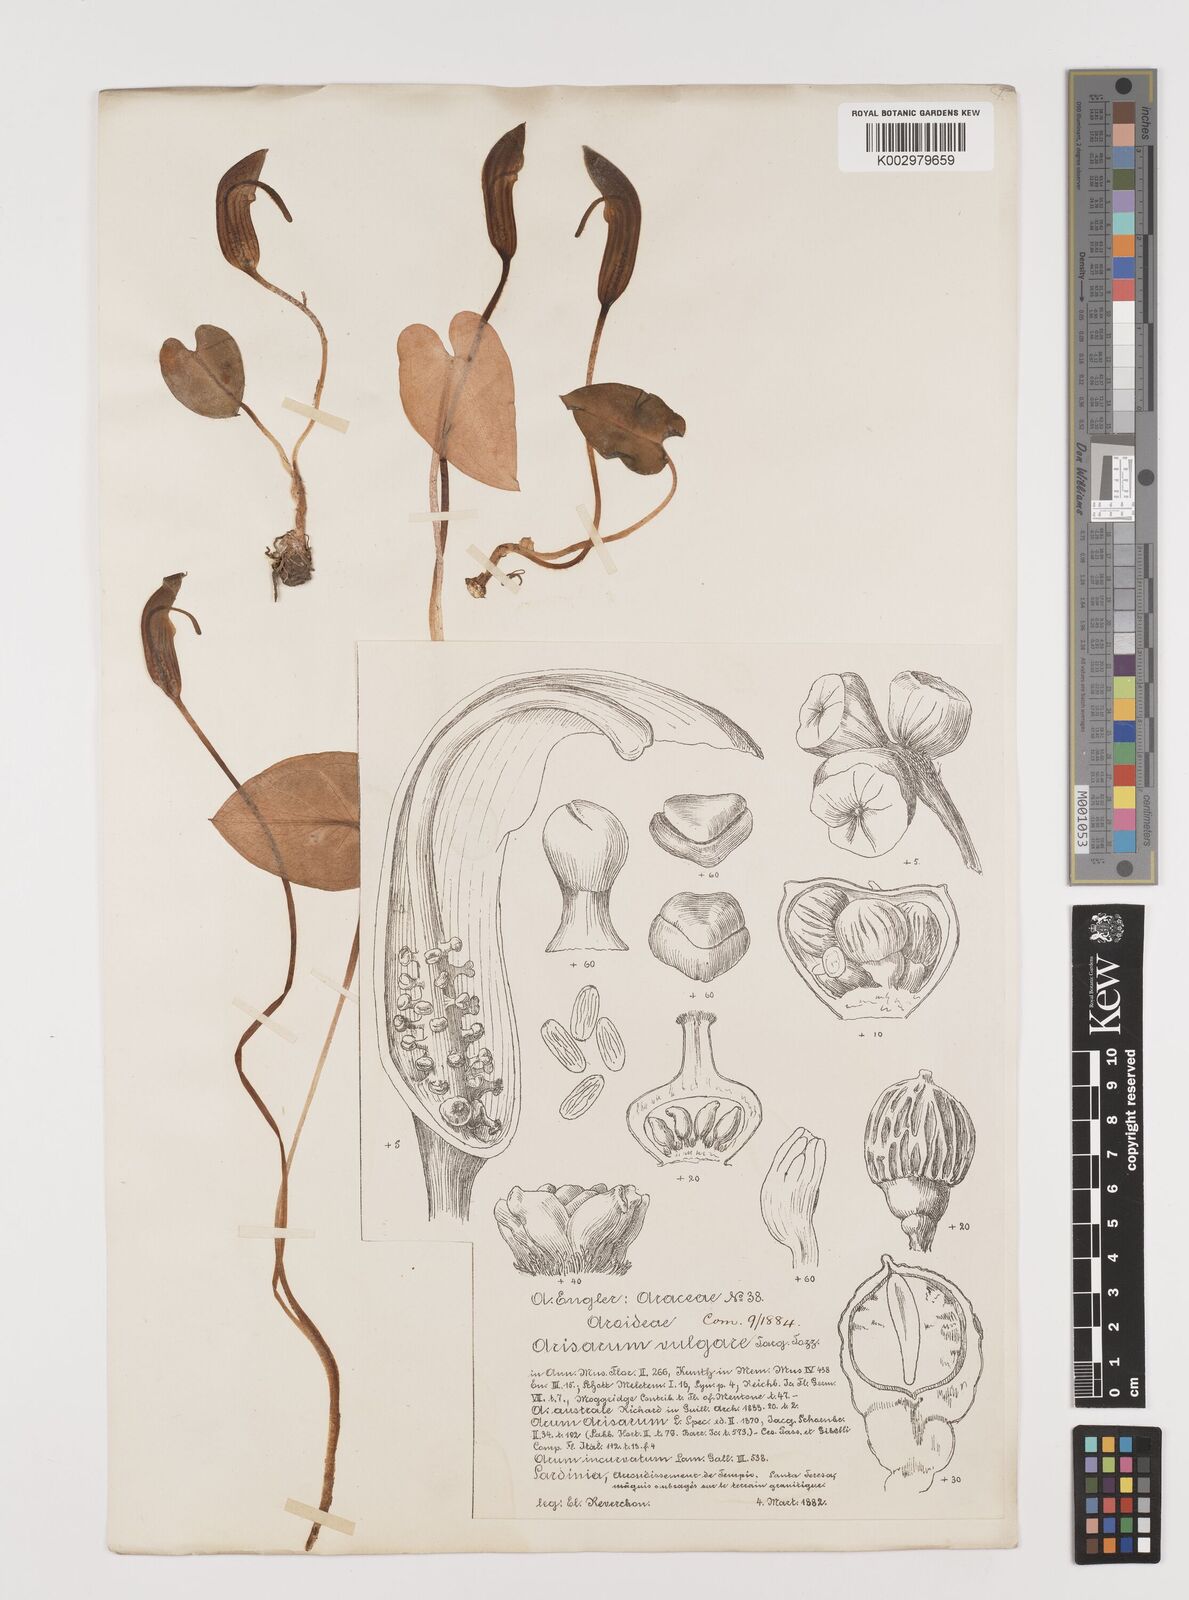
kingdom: Plantae
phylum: Tracheophyta
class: Liliopsida
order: Alismatales
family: Araceae
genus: Arisarum
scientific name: Arisarum vulgare
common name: Common arisarum
